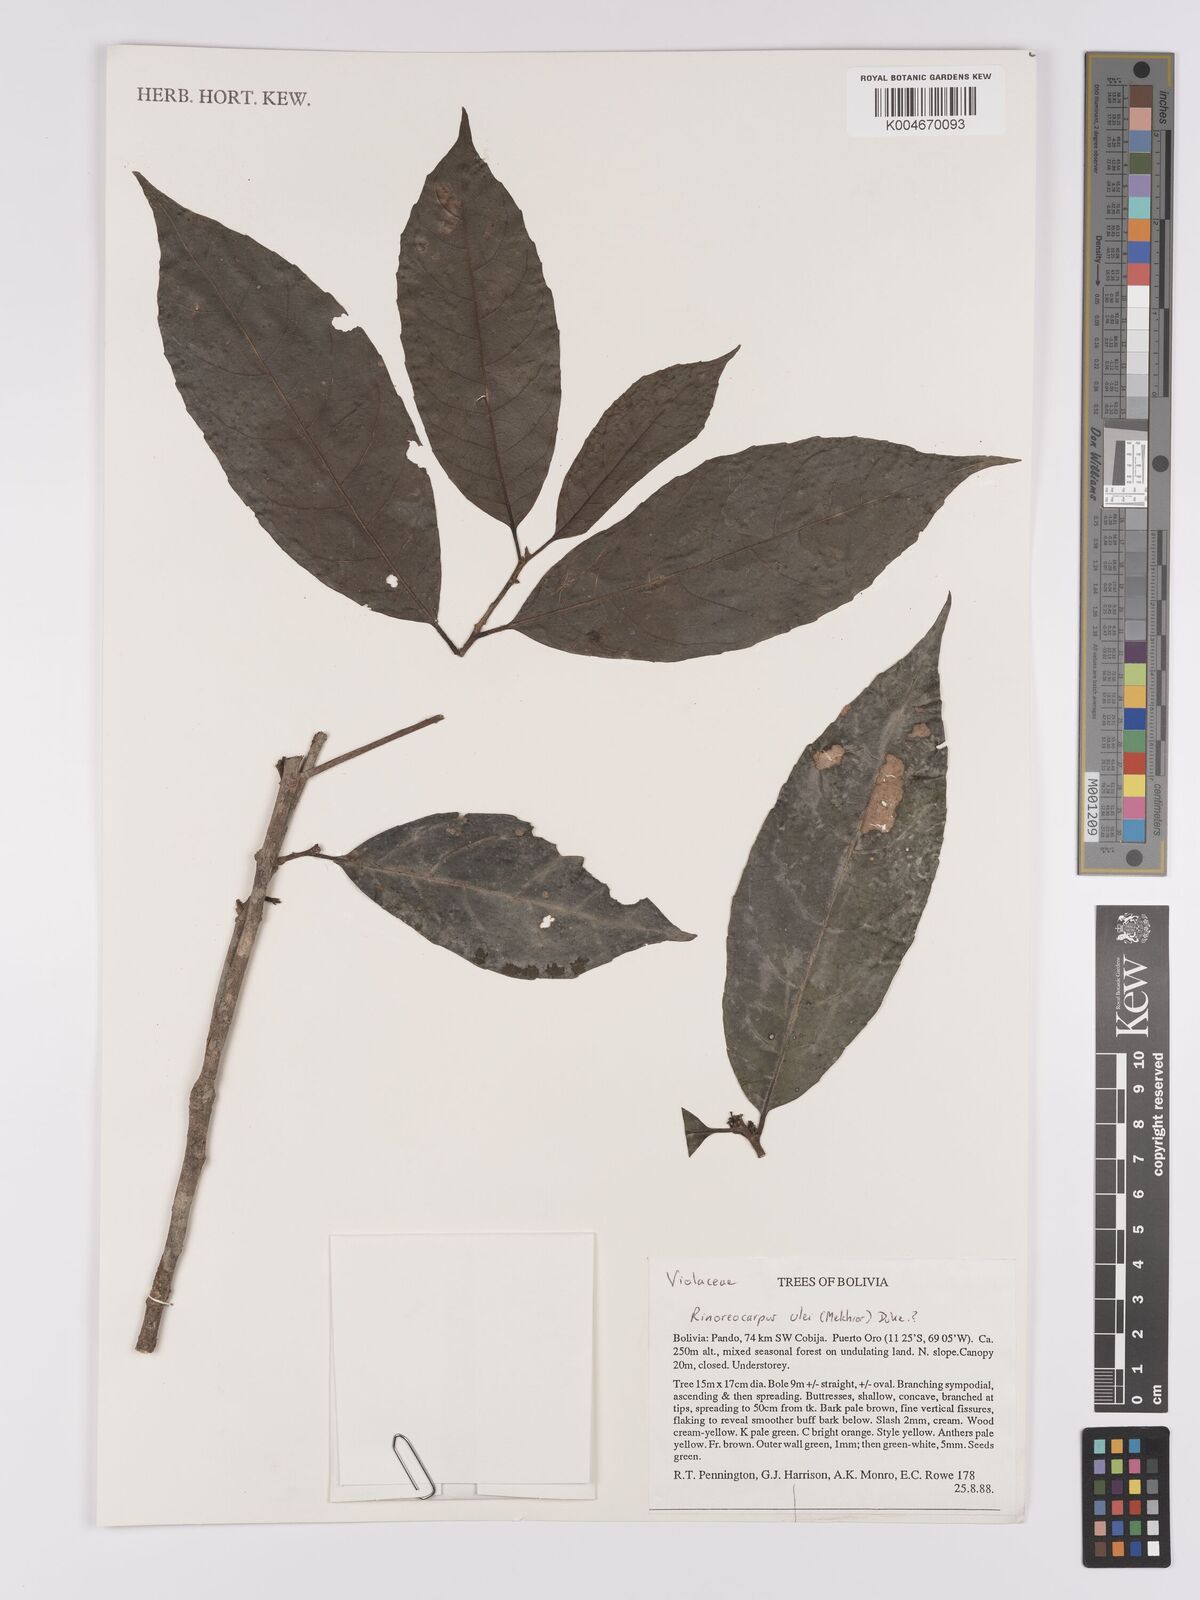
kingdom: Plantae
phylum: Tracheophyta
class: Magnoliopsida
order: Malpighiales
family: Violaceae
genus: Rinoreocarpus
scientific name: Rinoreocarpus ulei
